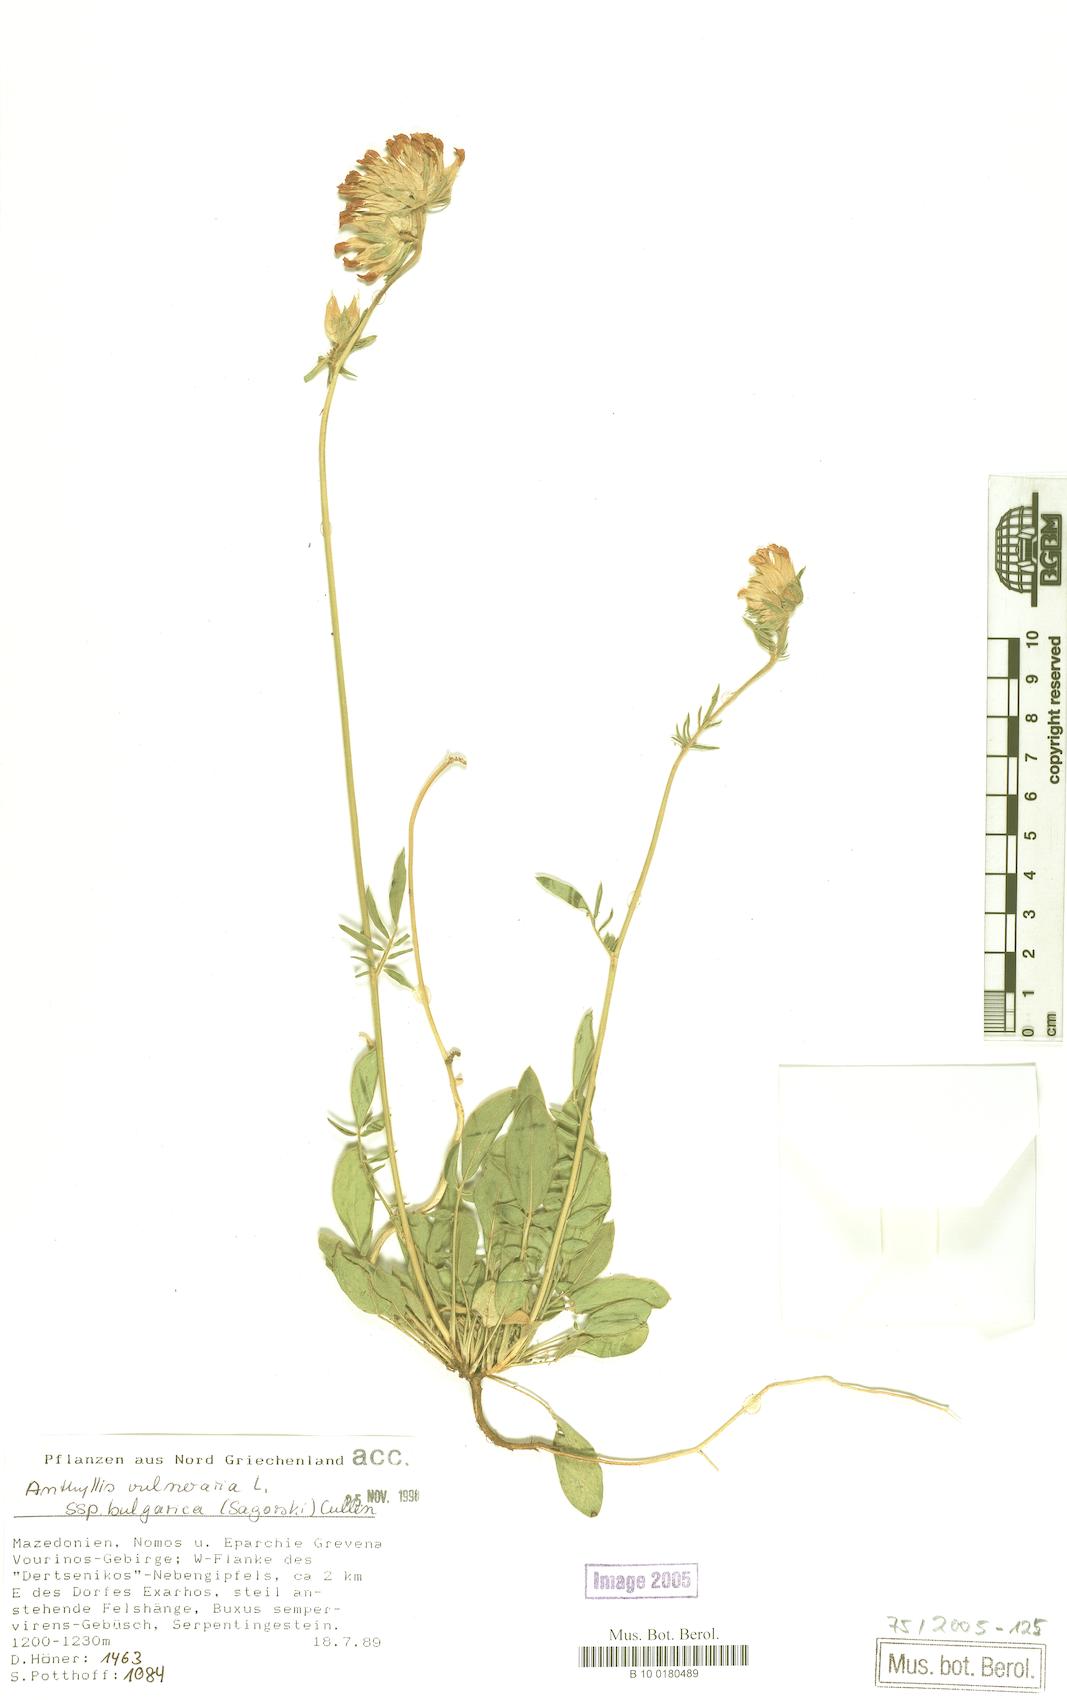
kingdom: Plantae
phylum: Tracheophyta
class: Magnoliopsida
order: Fabales
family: Fabaceae
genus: Anthyllis
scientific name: Anthyllis vulneraria
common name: Kidney vetch
